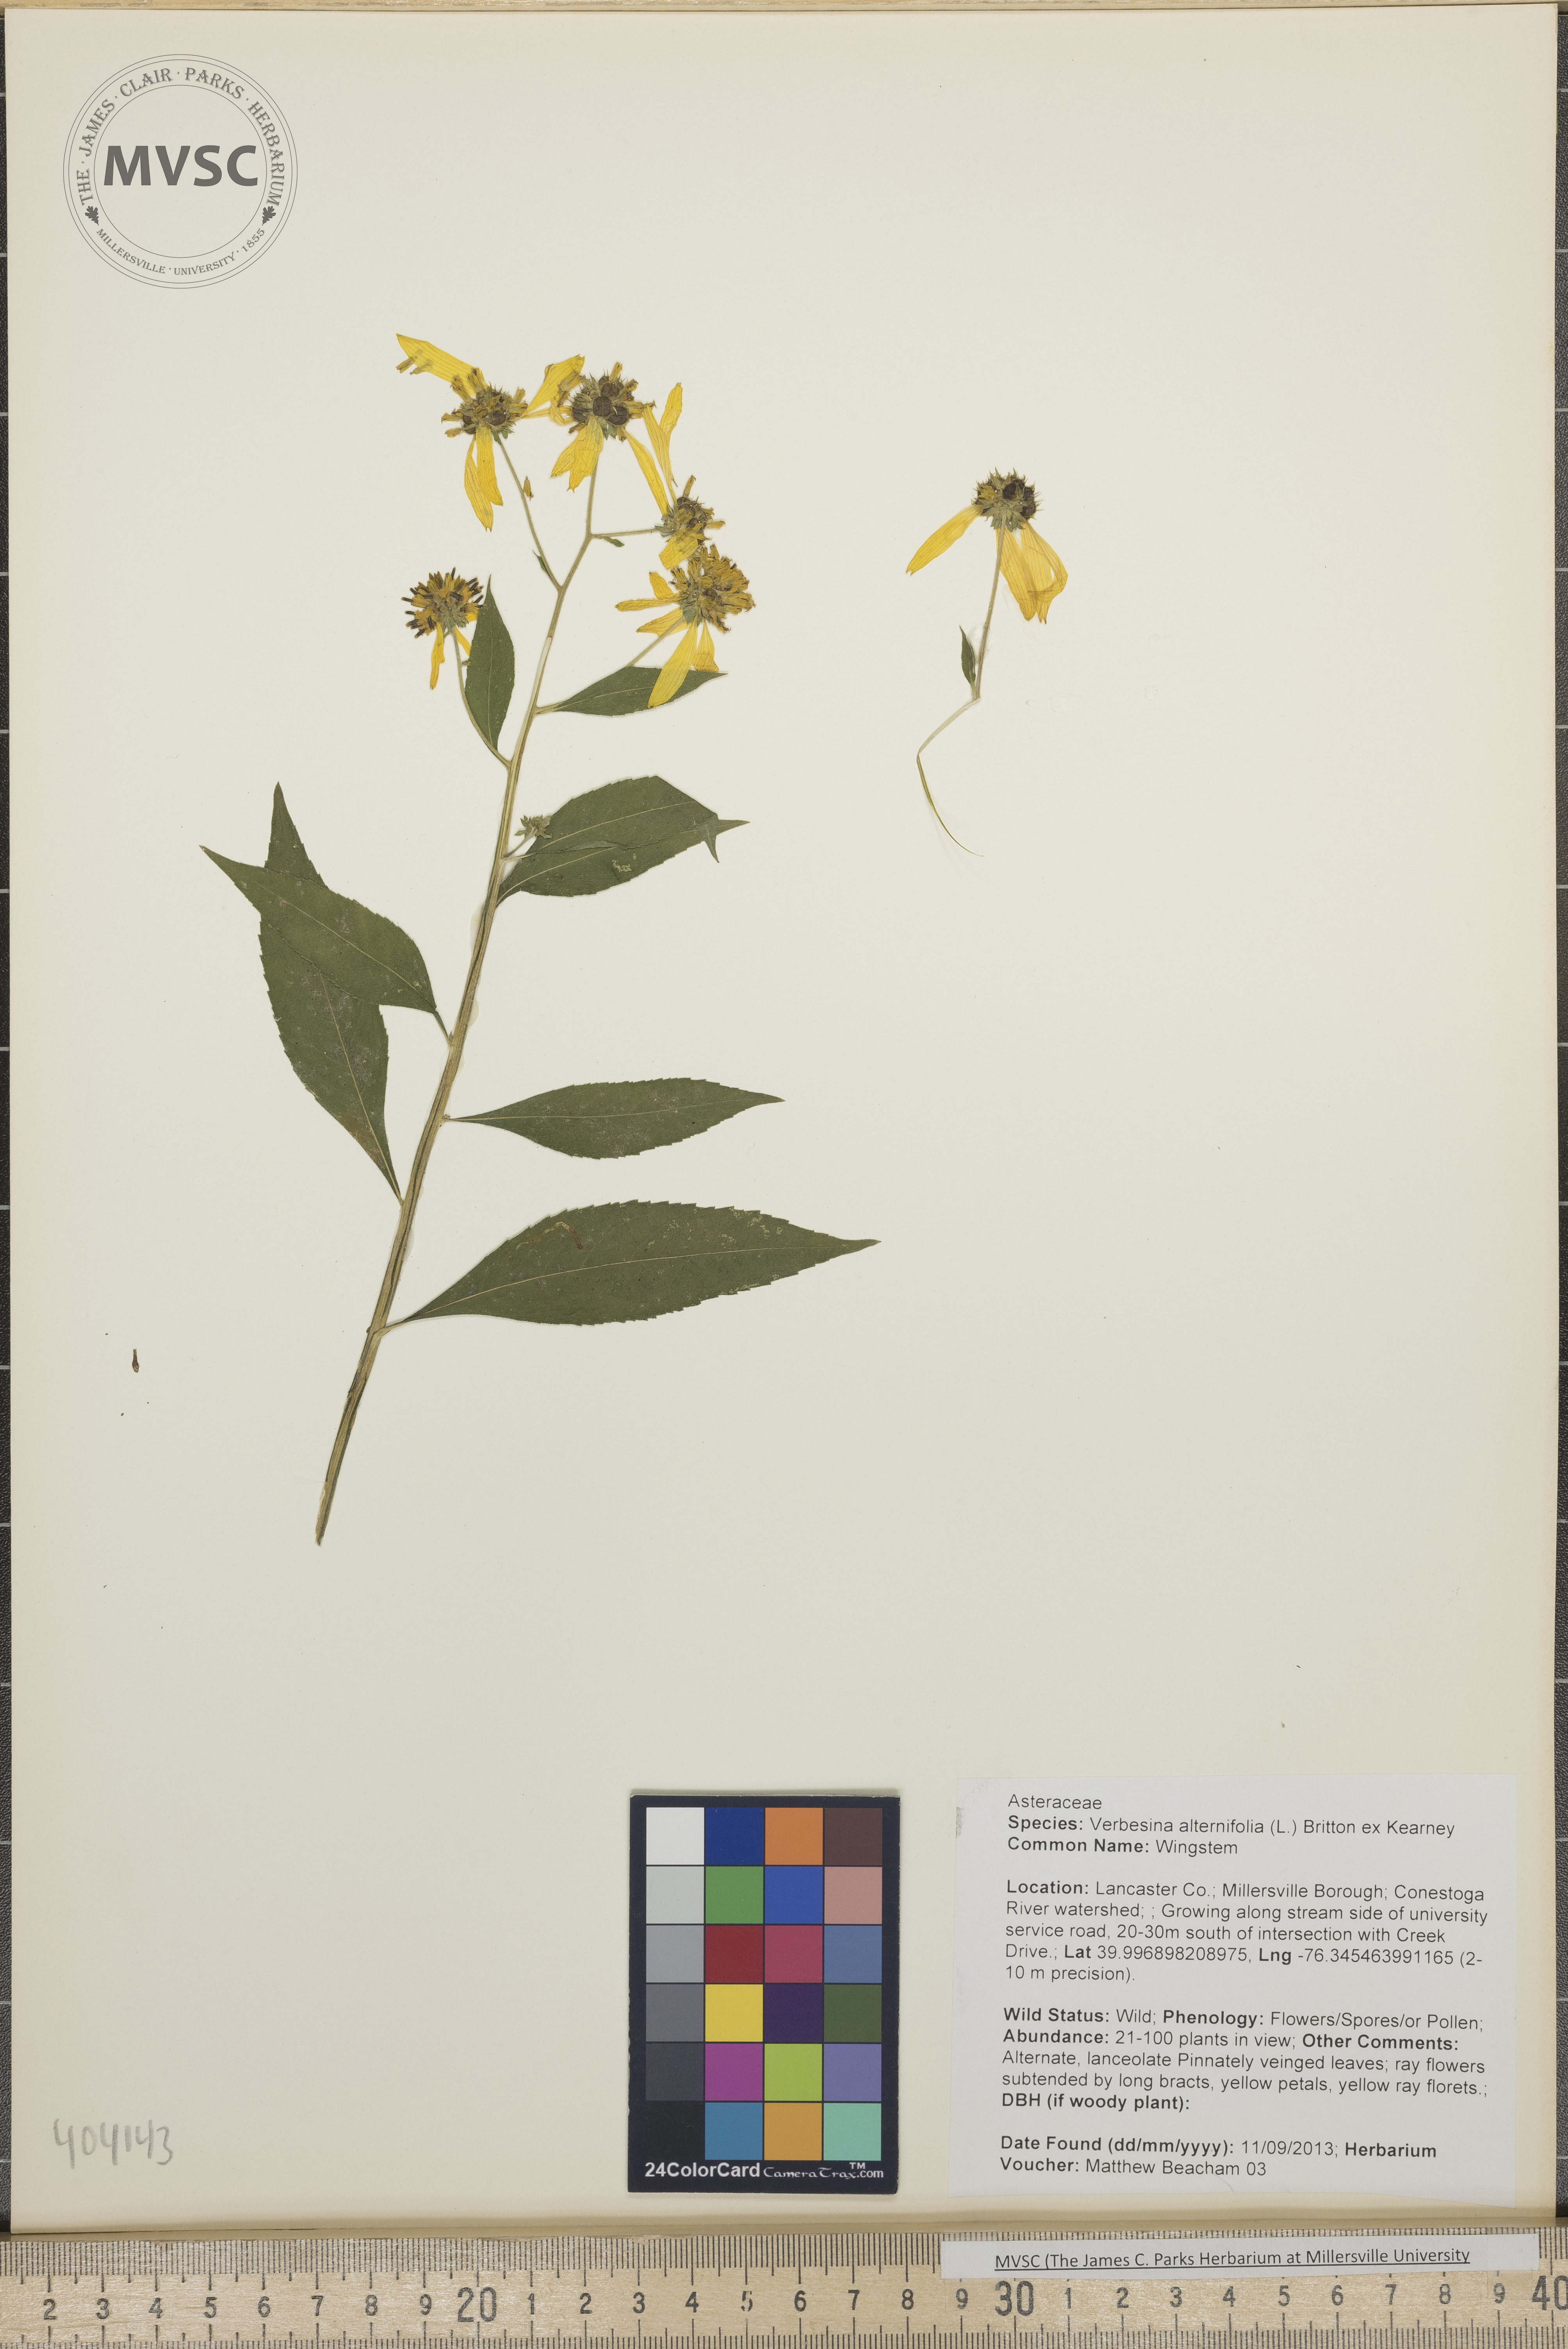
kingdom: Plantae
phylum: Tracheophyta
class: Magnoliopsida
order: Asterales
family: Asteraceae
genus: Verbesina
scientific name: Verbesina alternifolia
